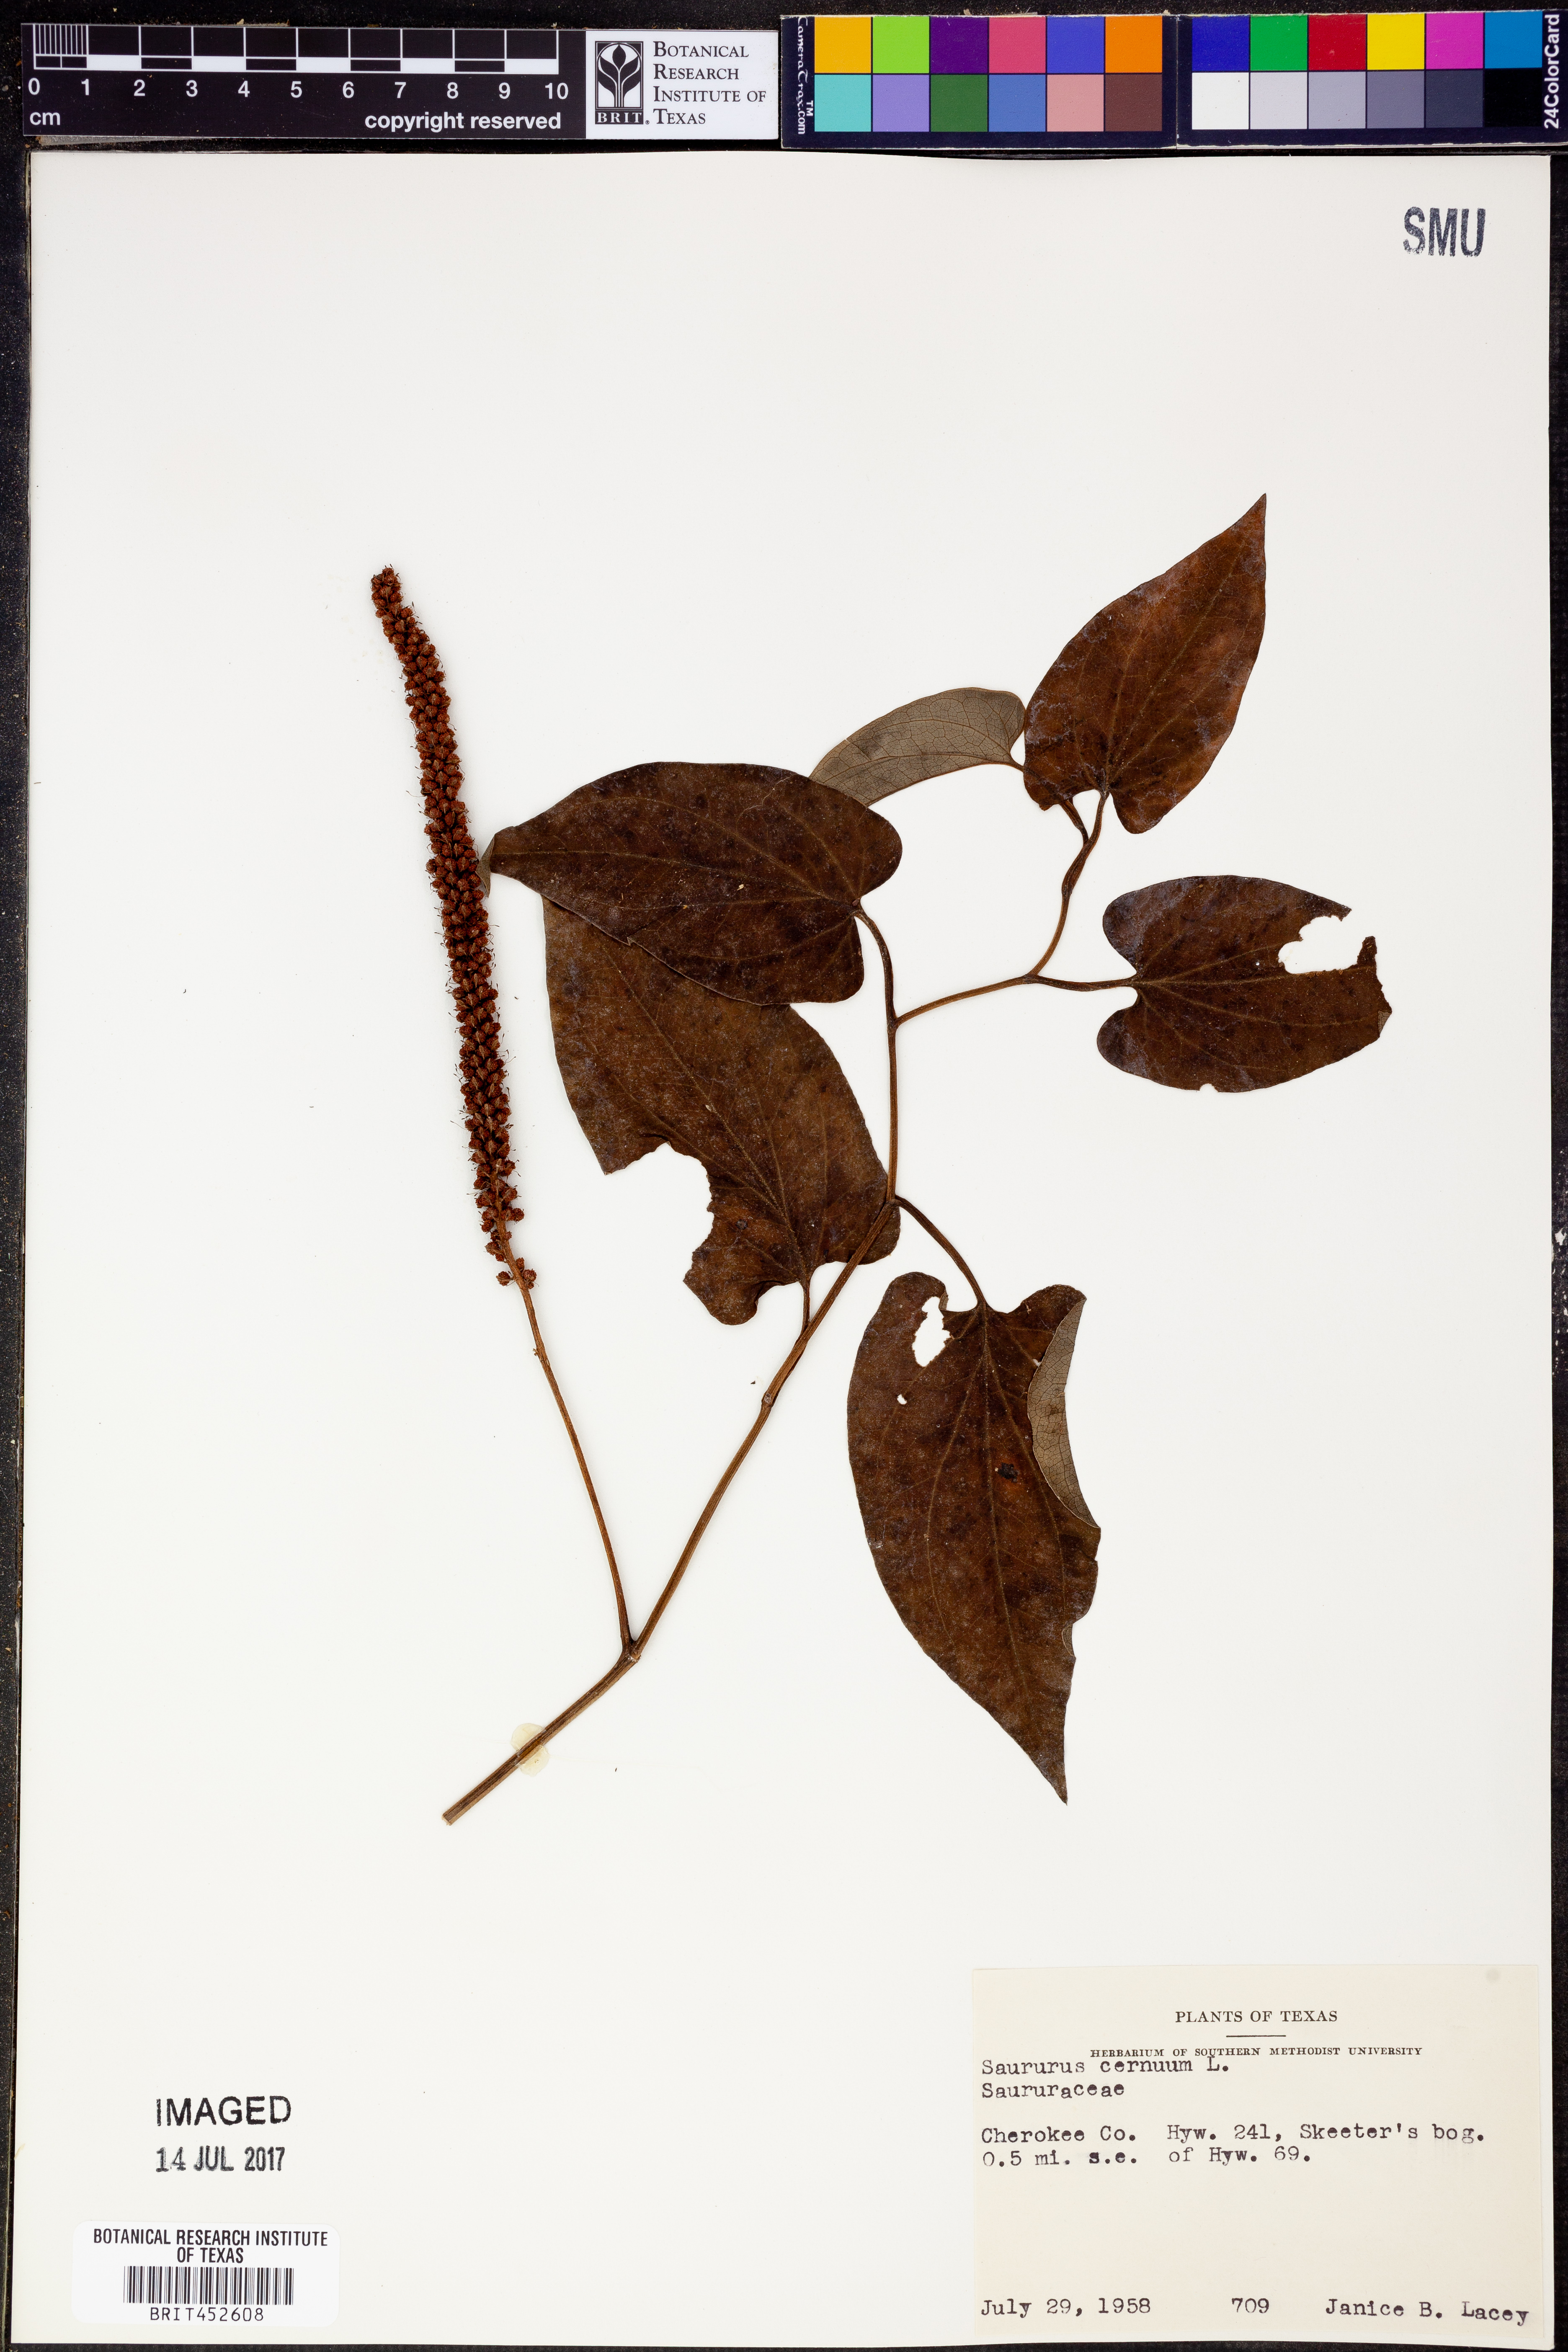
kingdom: Plantae
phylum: Tracheophyta
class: Magnoliopsida
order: Piperales
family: Saururaceae
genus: Saururus
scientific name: Saururus cernuus
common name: Lizard's-tail
